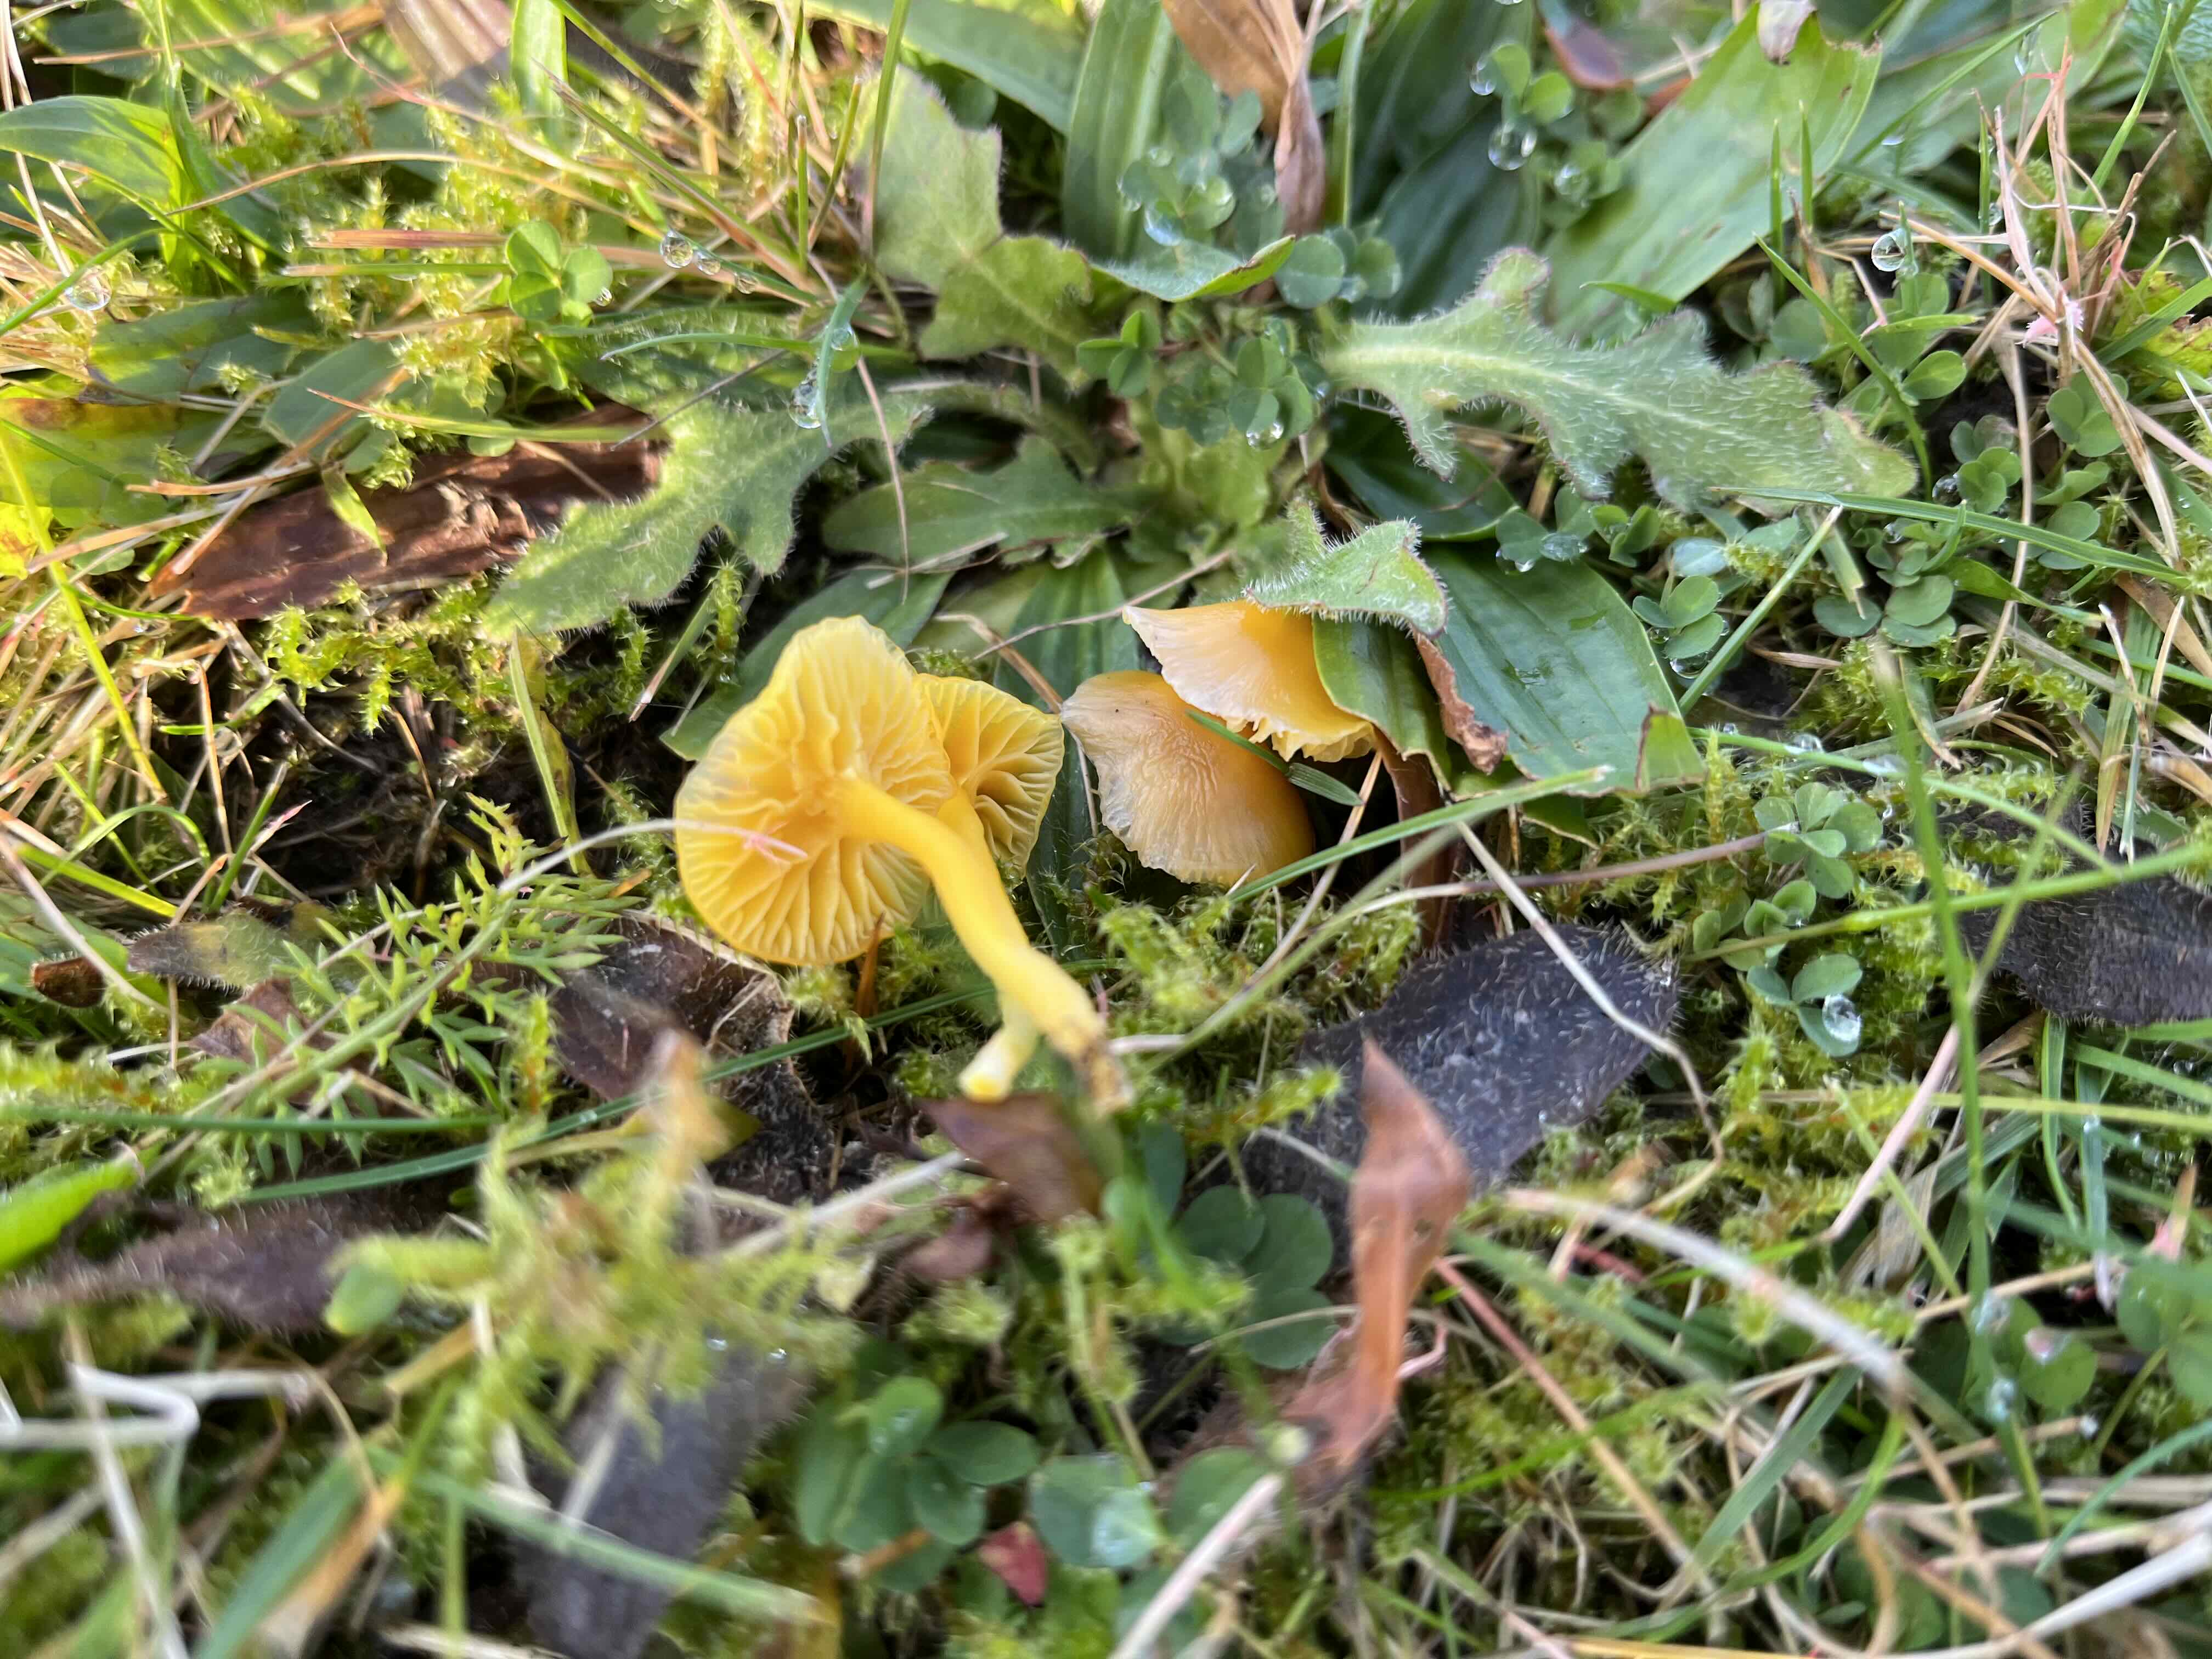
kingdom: Fungi
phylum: Basidiomycota
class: Agaricomycetes
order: Agaricales
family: Hygrophoraceae
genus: Hygrocybe
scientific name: Hygrocybe ceracea
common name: voksgul vokshat
